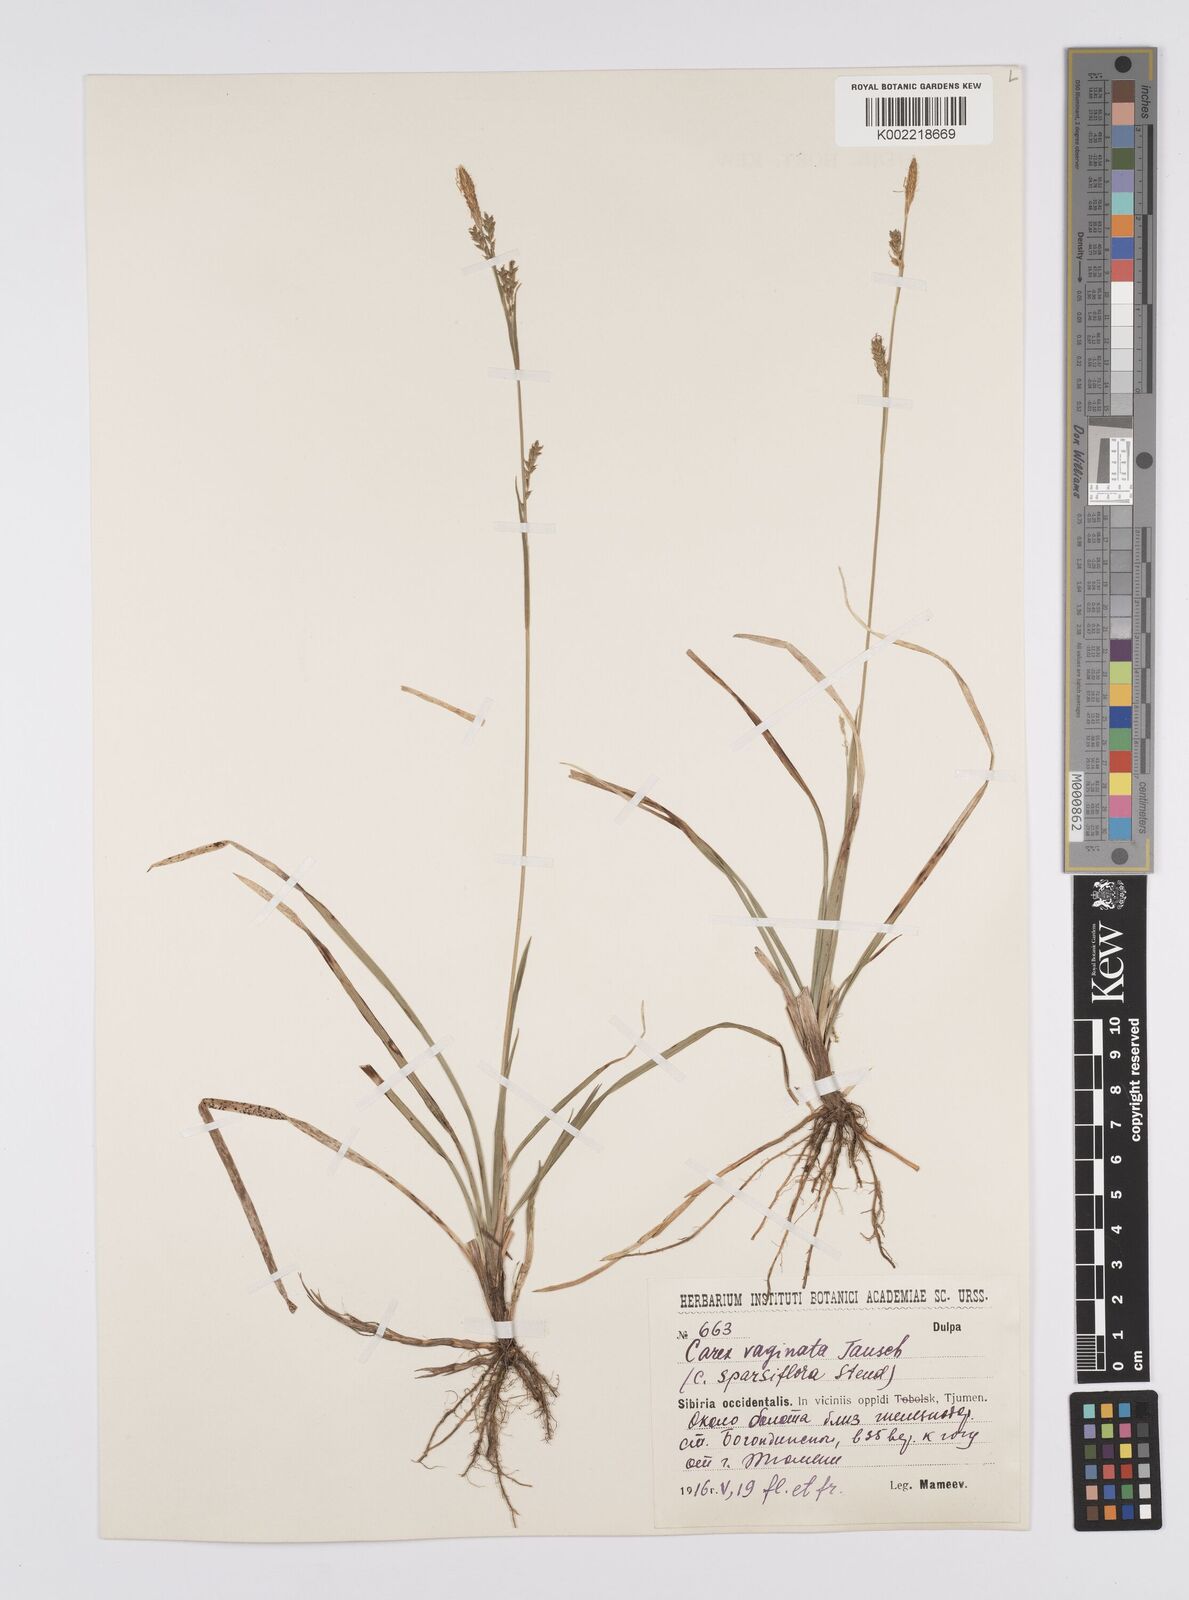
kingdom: Plantae
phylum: Tracheophyta
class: Liliopsida
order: Poales
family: Cyperaceae
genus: Carex
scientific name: Carex vaginata
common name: Sheathed sedge
